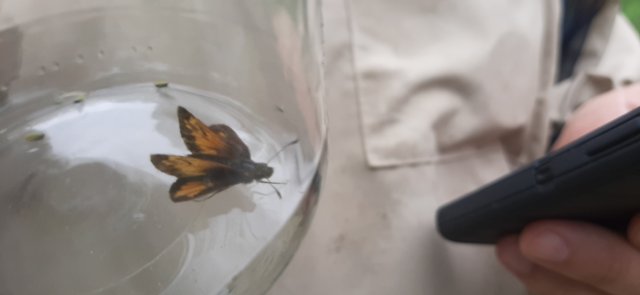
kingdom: Animalia
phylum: Arthropoda
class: Insecta
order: Lepidoptera
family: Hesperiidae
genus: Lon
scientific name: Lon hobomok
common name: Hobomok Skipper
